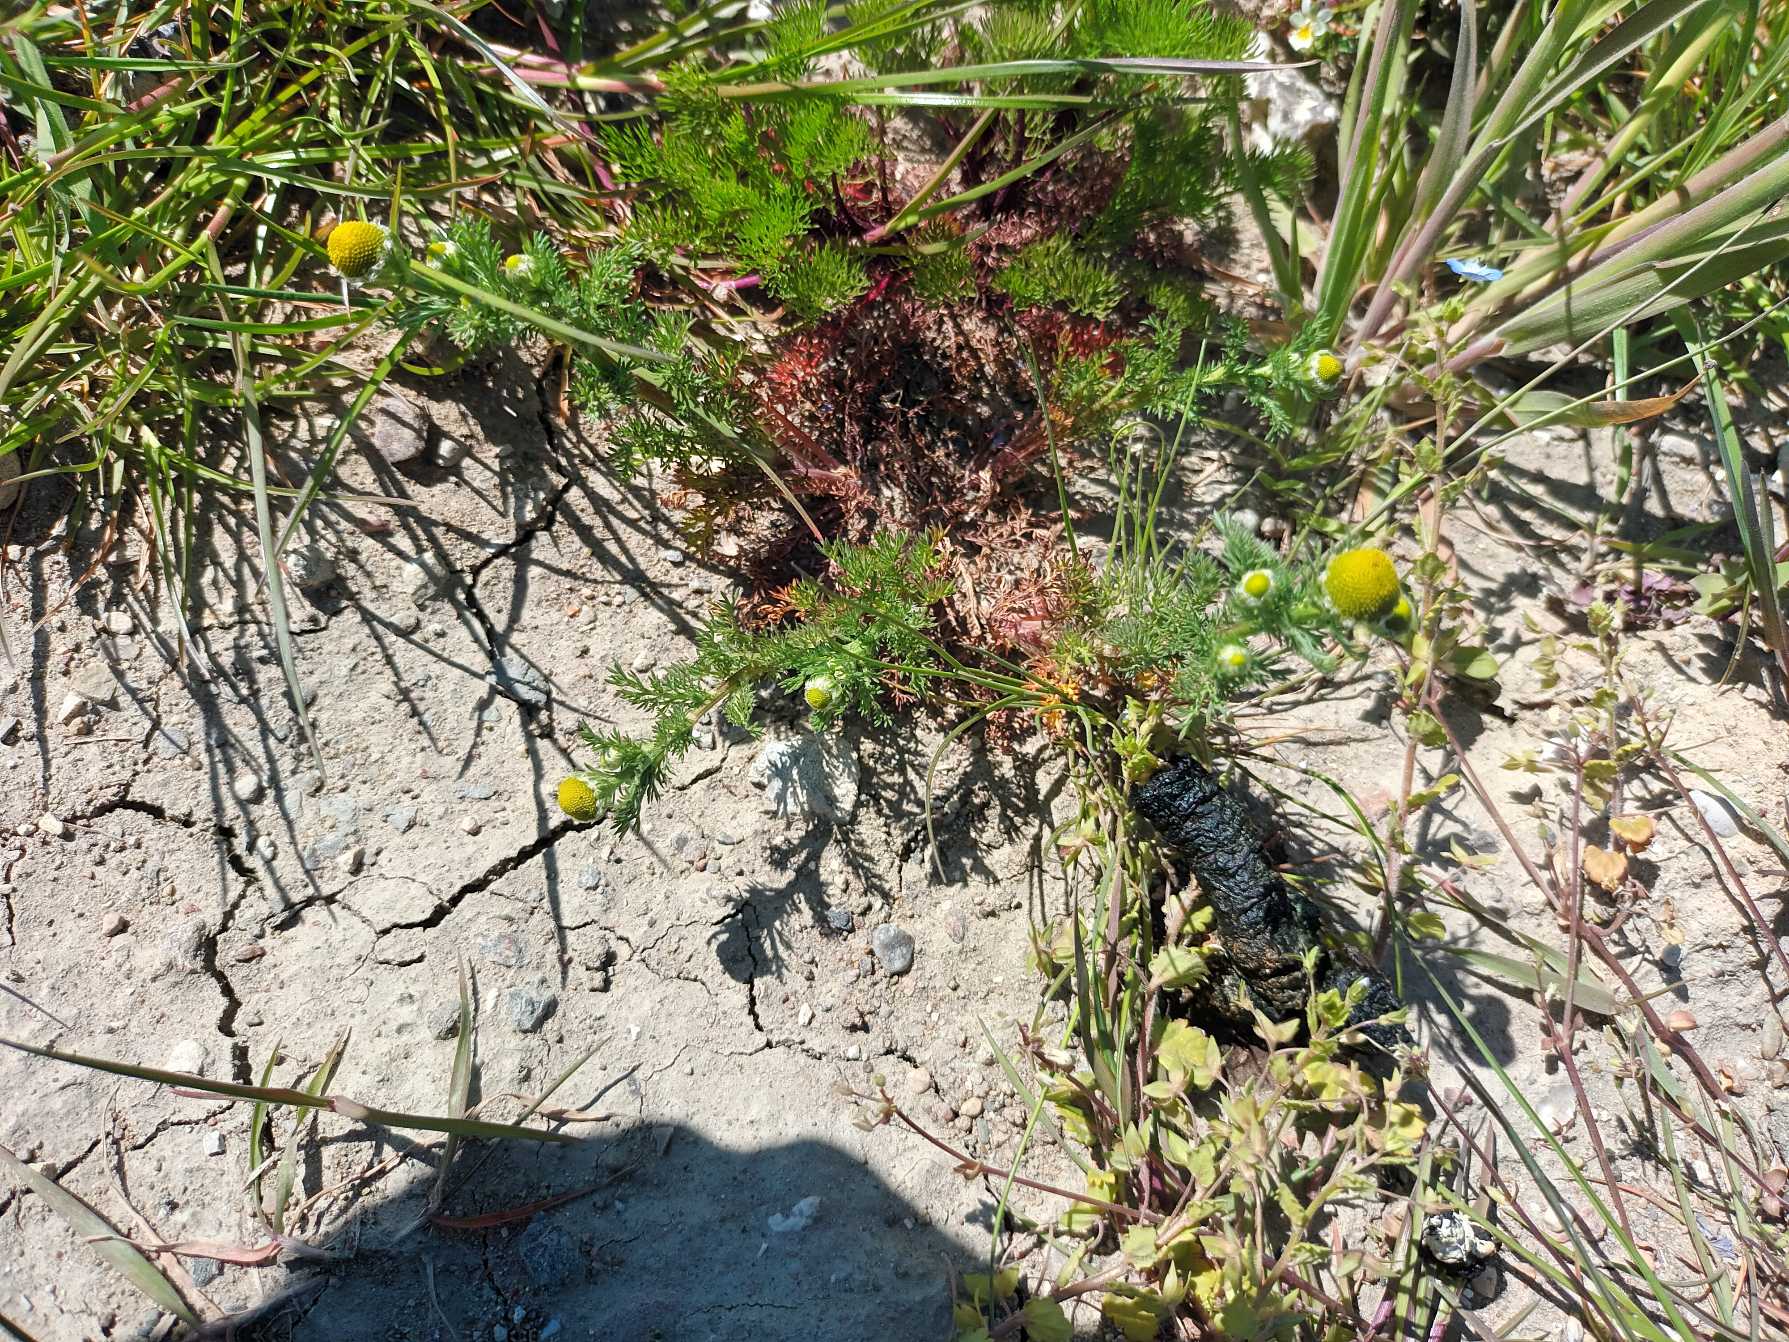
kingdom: Plantae
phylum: Tracheophyta
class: Magnoliopsida
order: Asterales
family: Asteraceae
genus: Matricaria
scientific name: Matricaria discoidea
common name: Skive-kamille
